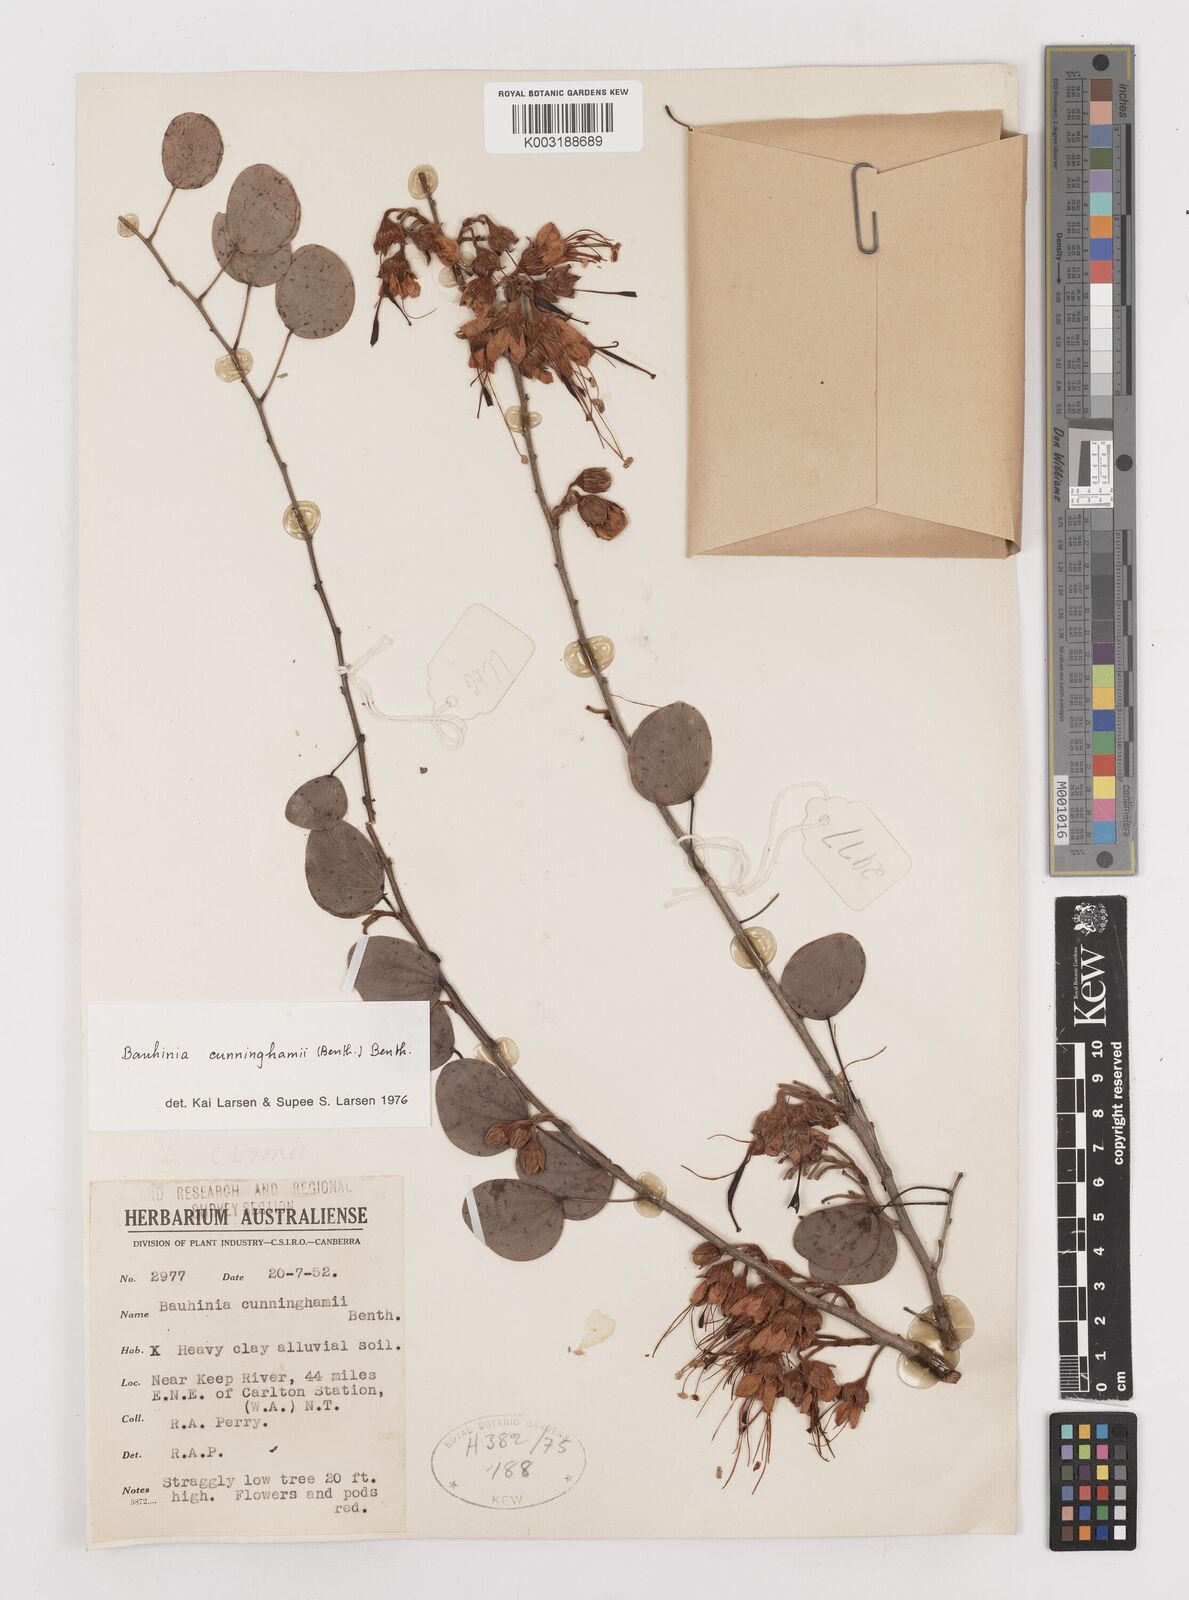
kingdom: Plantae
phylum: Tracheophyta
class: Magnoliopsida
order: Fabales
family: Fabaceae
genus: Lysiphyllum
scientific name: Lysiphyllum cunninghamii
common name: Kimberley bauhinia
